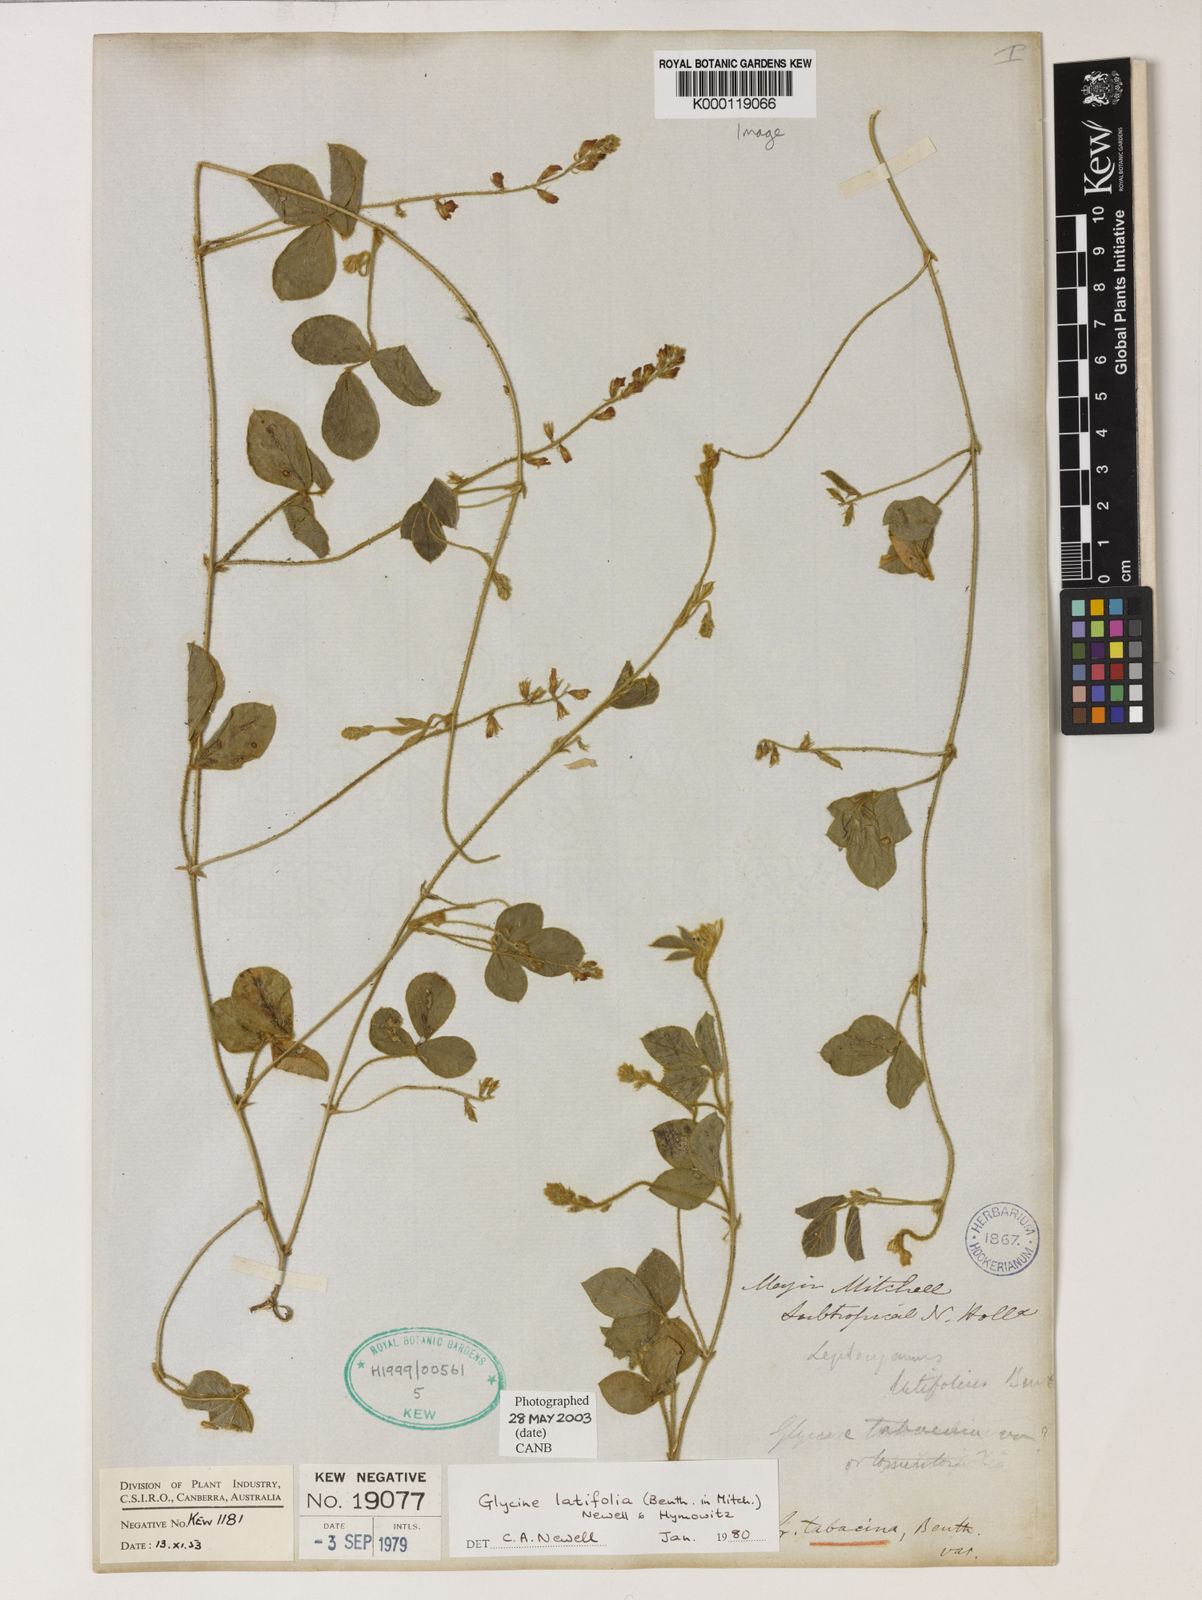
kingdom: Plantae
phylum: Tracheophyta
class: Magnoliopsida
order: Fabales
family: Fabaceae
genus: Glycine
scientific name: Glycine latifolia
